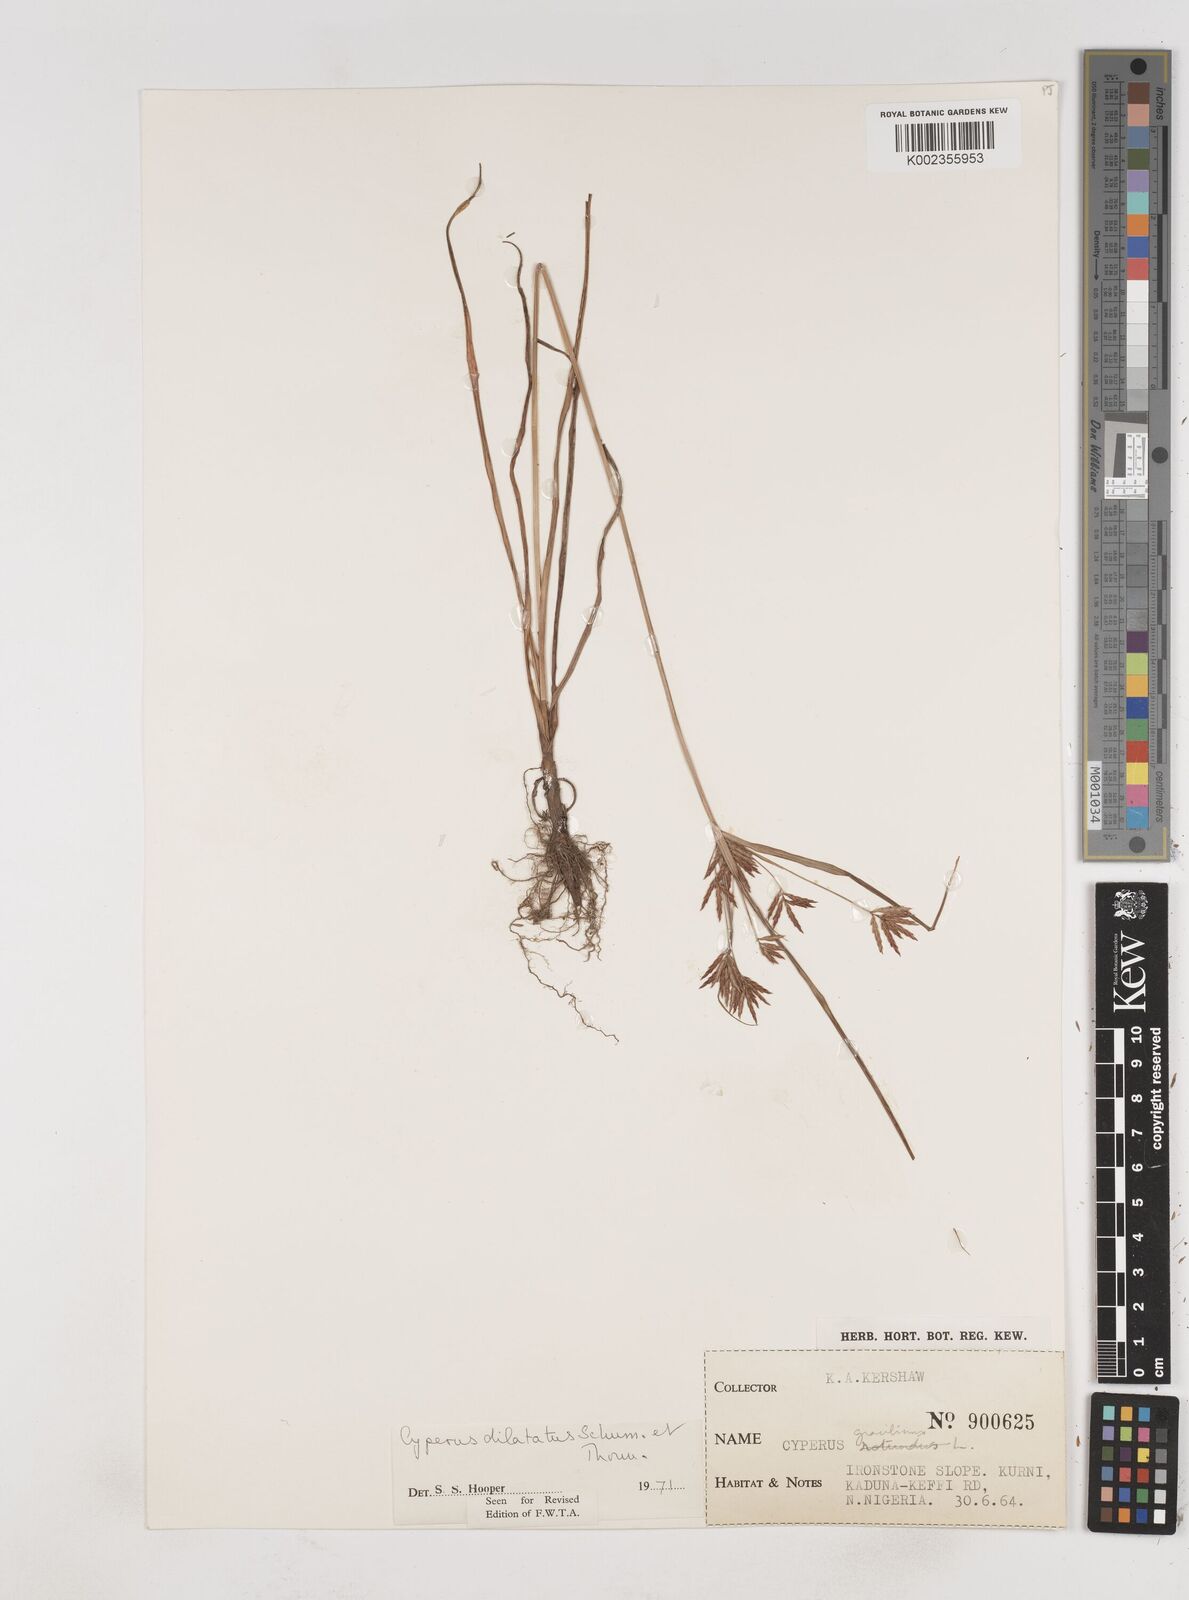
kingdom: Plantae
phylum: Tracheophyta
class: Liliopsida
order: Poales
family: Cyperaceae
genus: Cyperus
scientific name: Cyperus dilatatus
